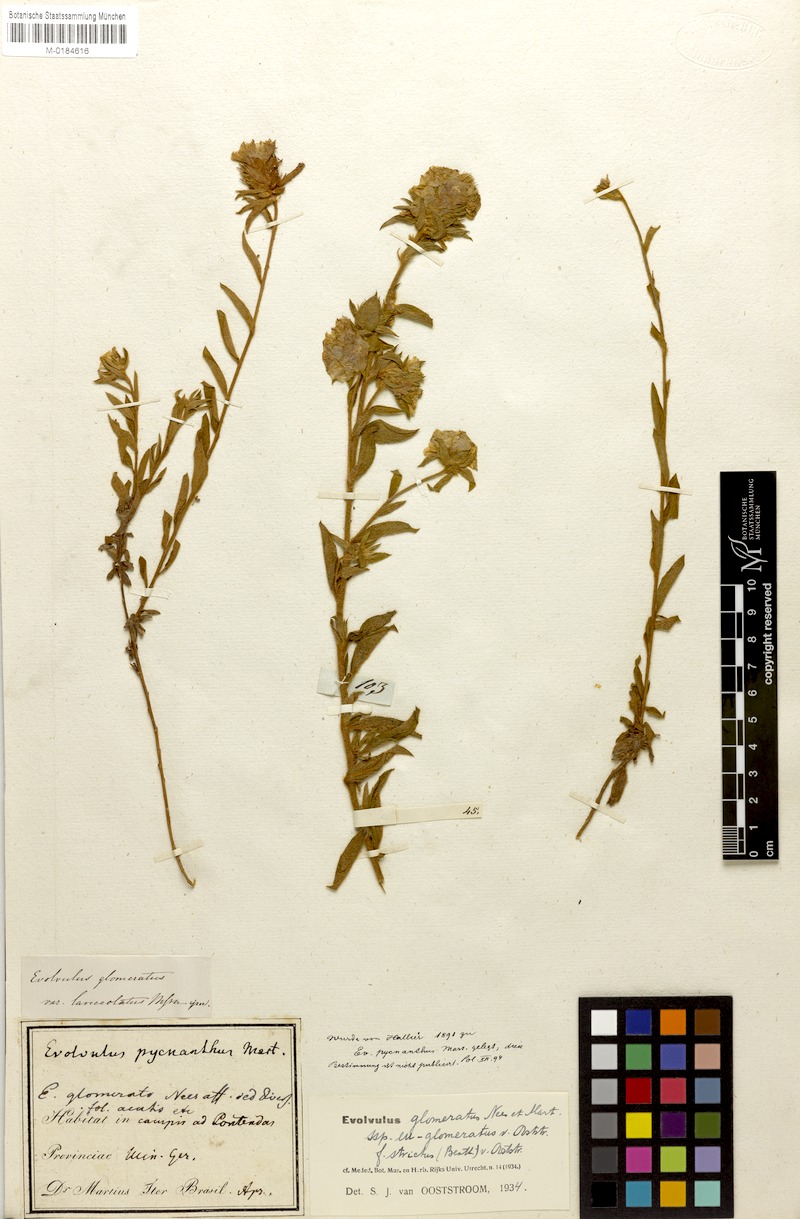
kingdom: Plantae
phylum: Tracheophyta
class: Magnoliopsida
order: Solanales
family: Convolvulaceae
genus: Evolvulus
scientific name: Evolvulus glomeratus
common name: Brazilian dwarf morning-glory
